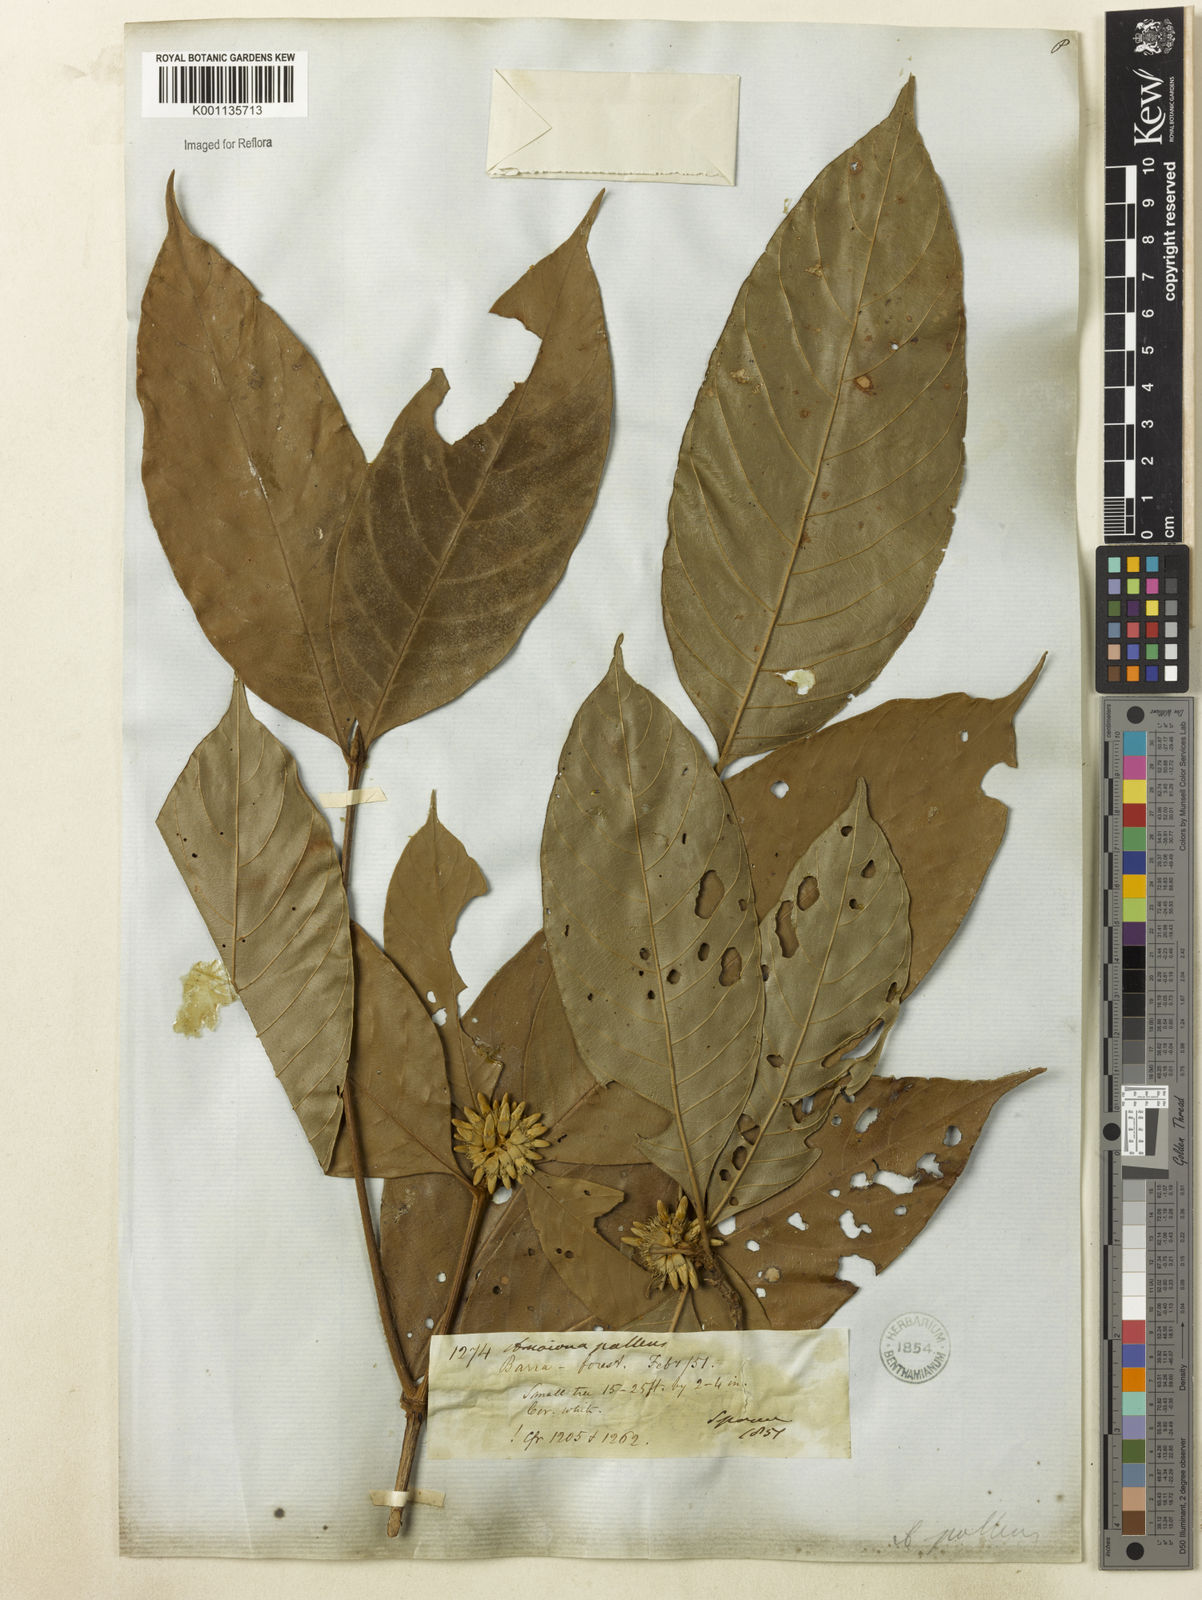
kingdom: Plantae
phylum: Tracheophyta
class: Magnoliopsida
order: Gentianales
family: Rubiaceae
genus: Amaioua
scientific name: Amaioua
